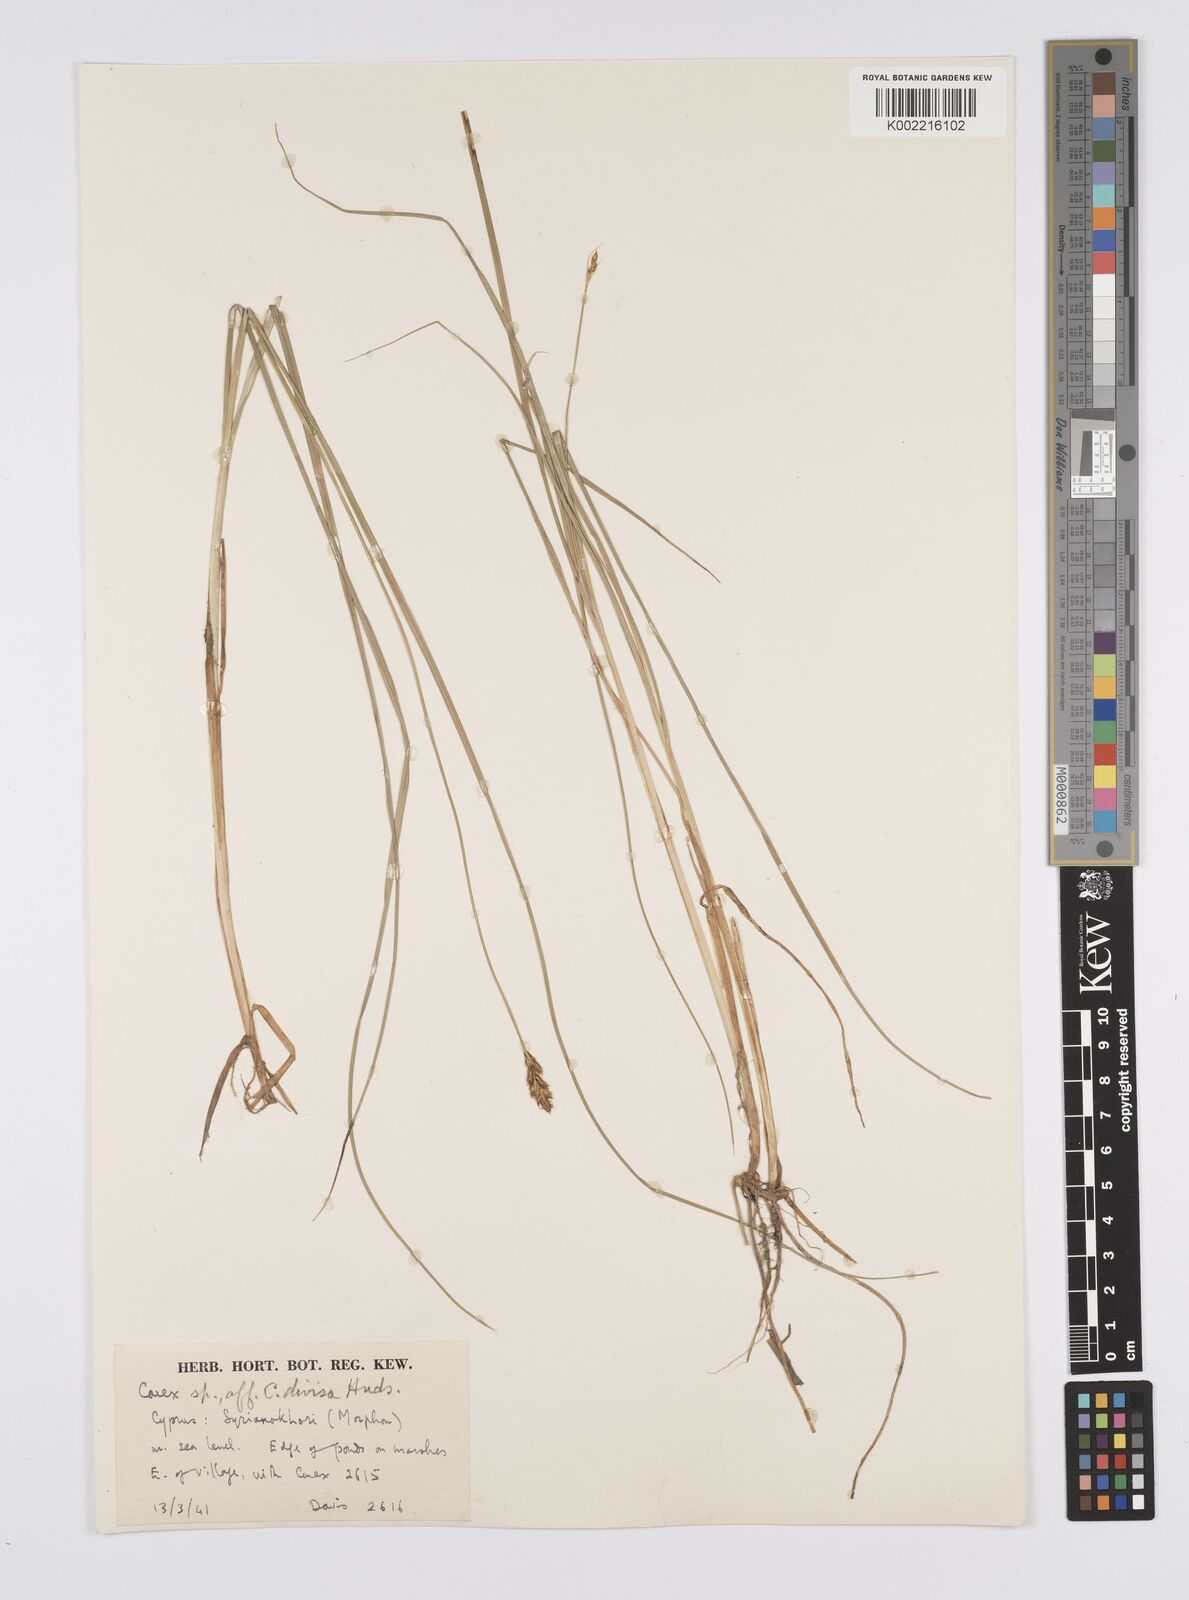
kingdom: Plantae
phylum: Tracheophyta
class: Liliopsida
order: Poales
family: Cyperaceae
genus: Carex
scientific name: Carex divisa
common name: Divided sedge
